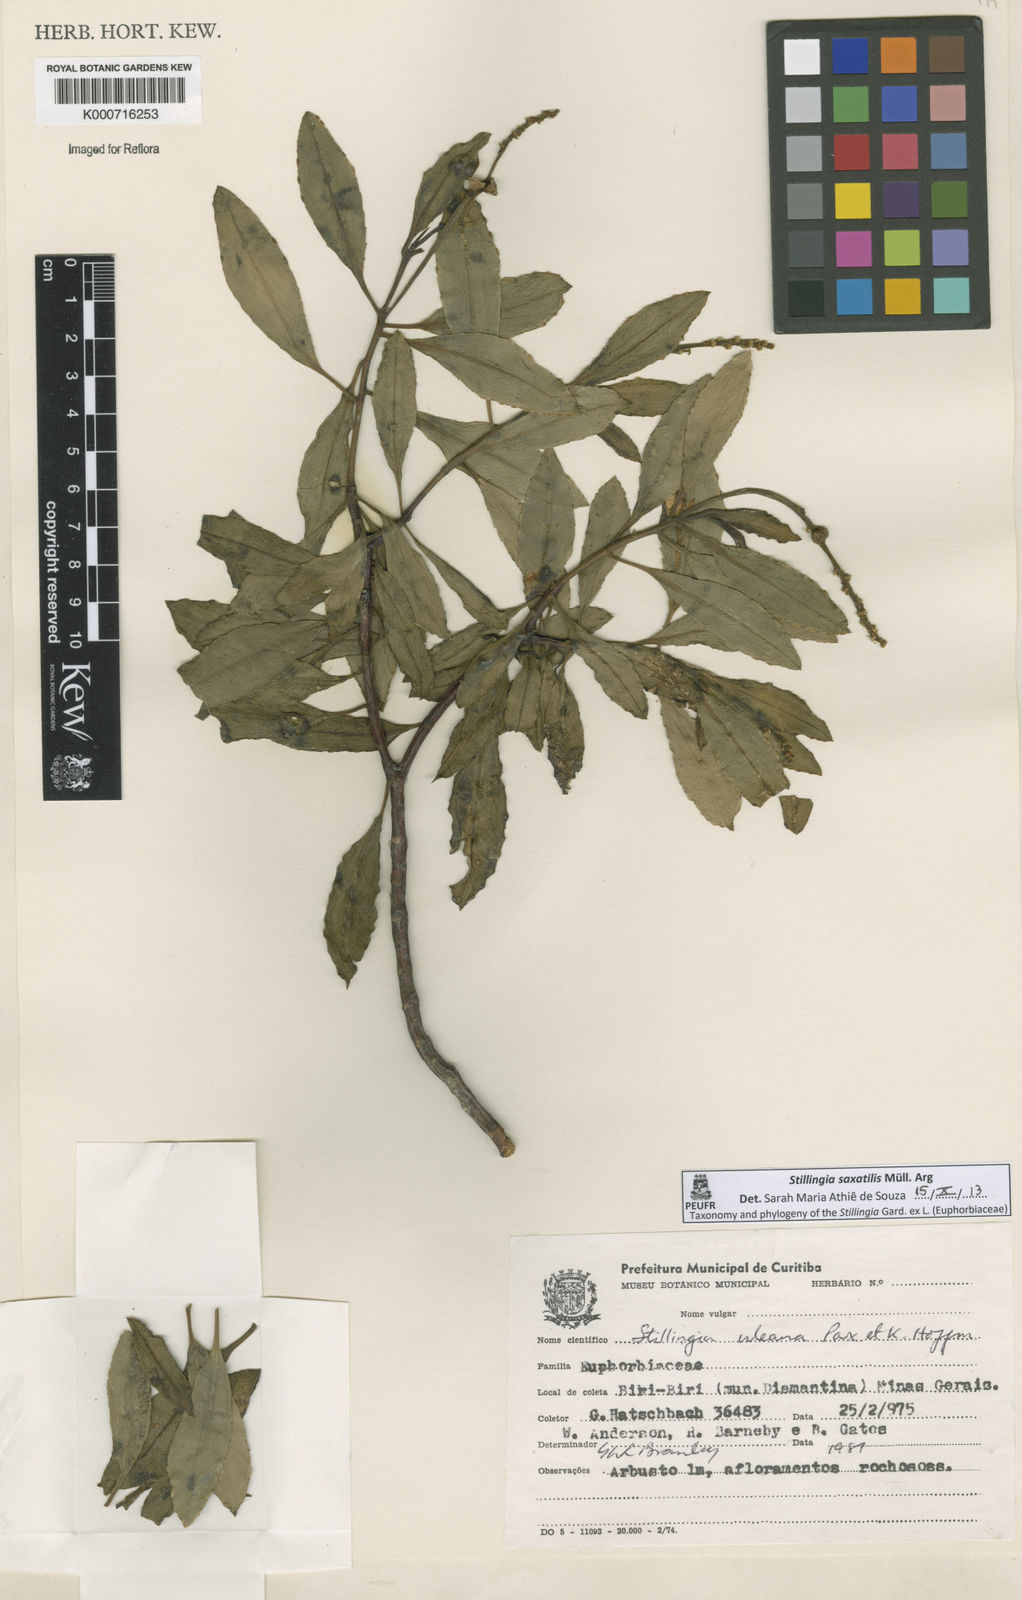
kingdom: Plantae
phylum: Tracheophyta
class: Magnoliopsida
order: Malpighiales
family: Euphorbiaceae
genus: Stillingia
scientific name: Stillingia uleana
